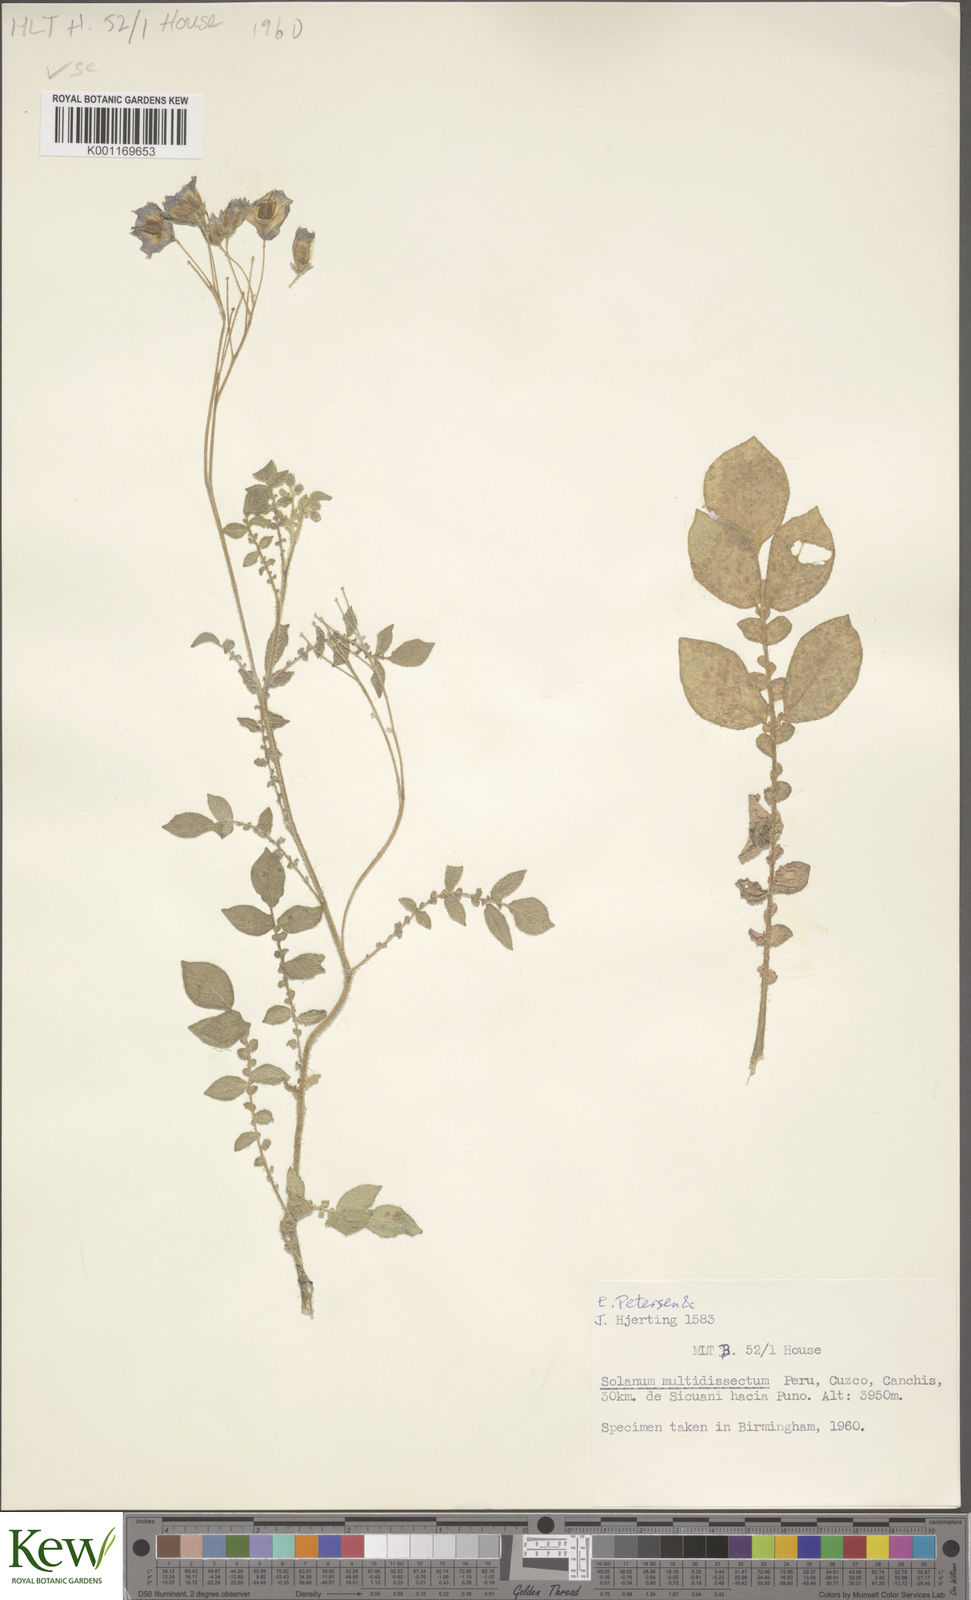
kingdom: Plantae
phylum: Tracheophyta
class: Magnoliopsida
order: Solanales
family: Solanaceae
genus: Solanum
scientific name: Solanum candolleanum
